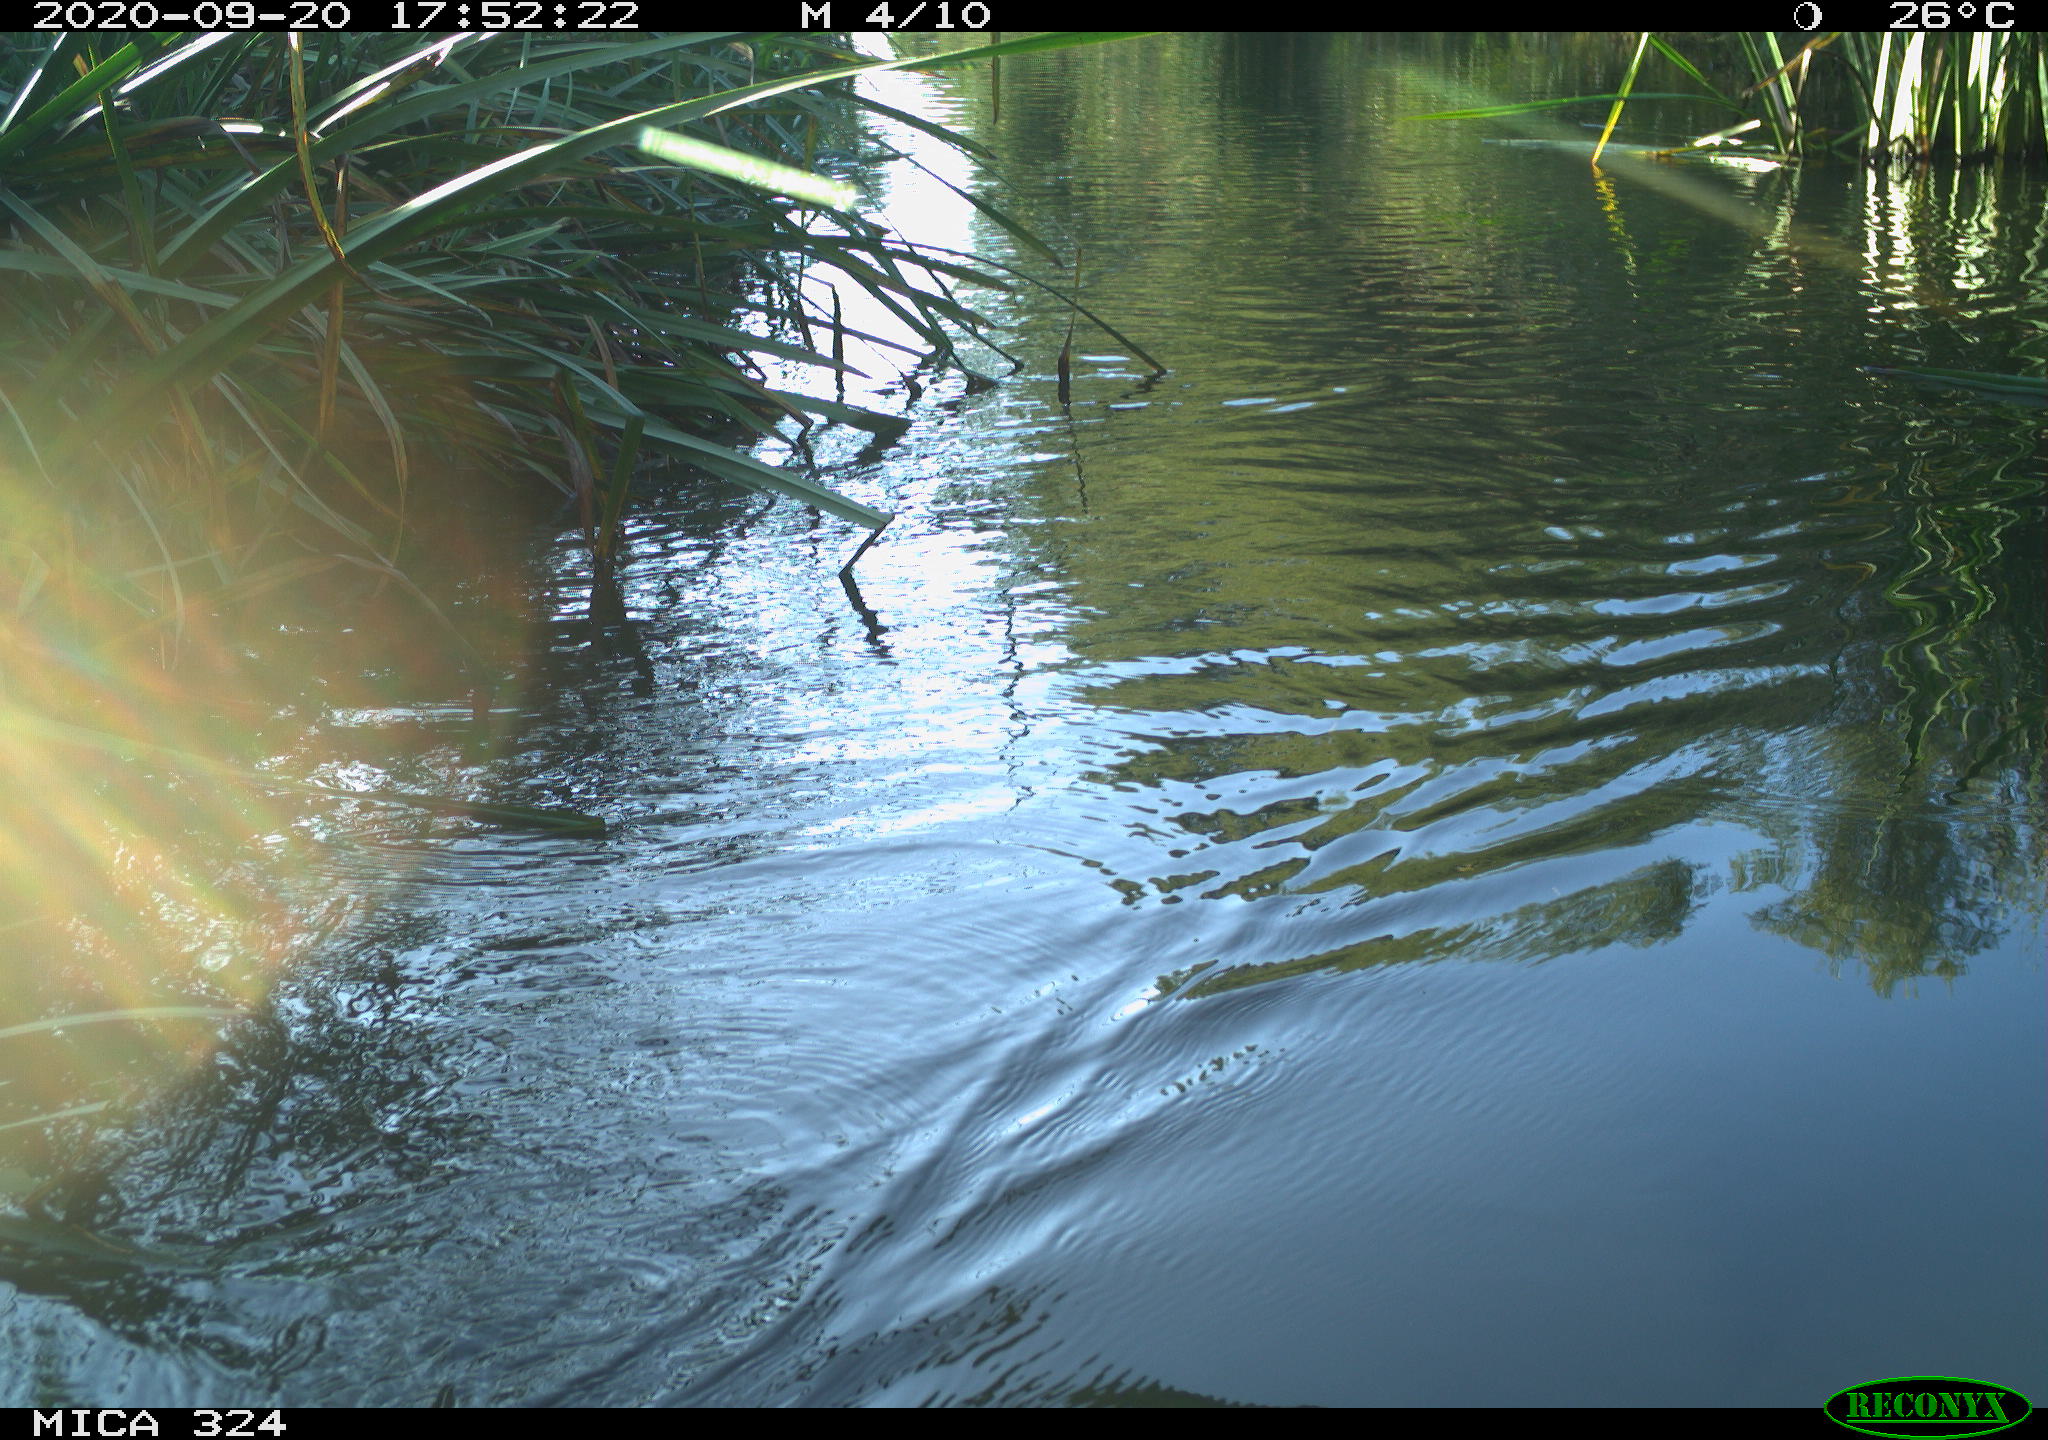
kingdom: Animalia
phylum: Chordata
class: Mammalia
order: Rodentia
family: Cricetidae
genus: Ondatra
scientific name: Ondatra zibethicus
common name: Muskrat
